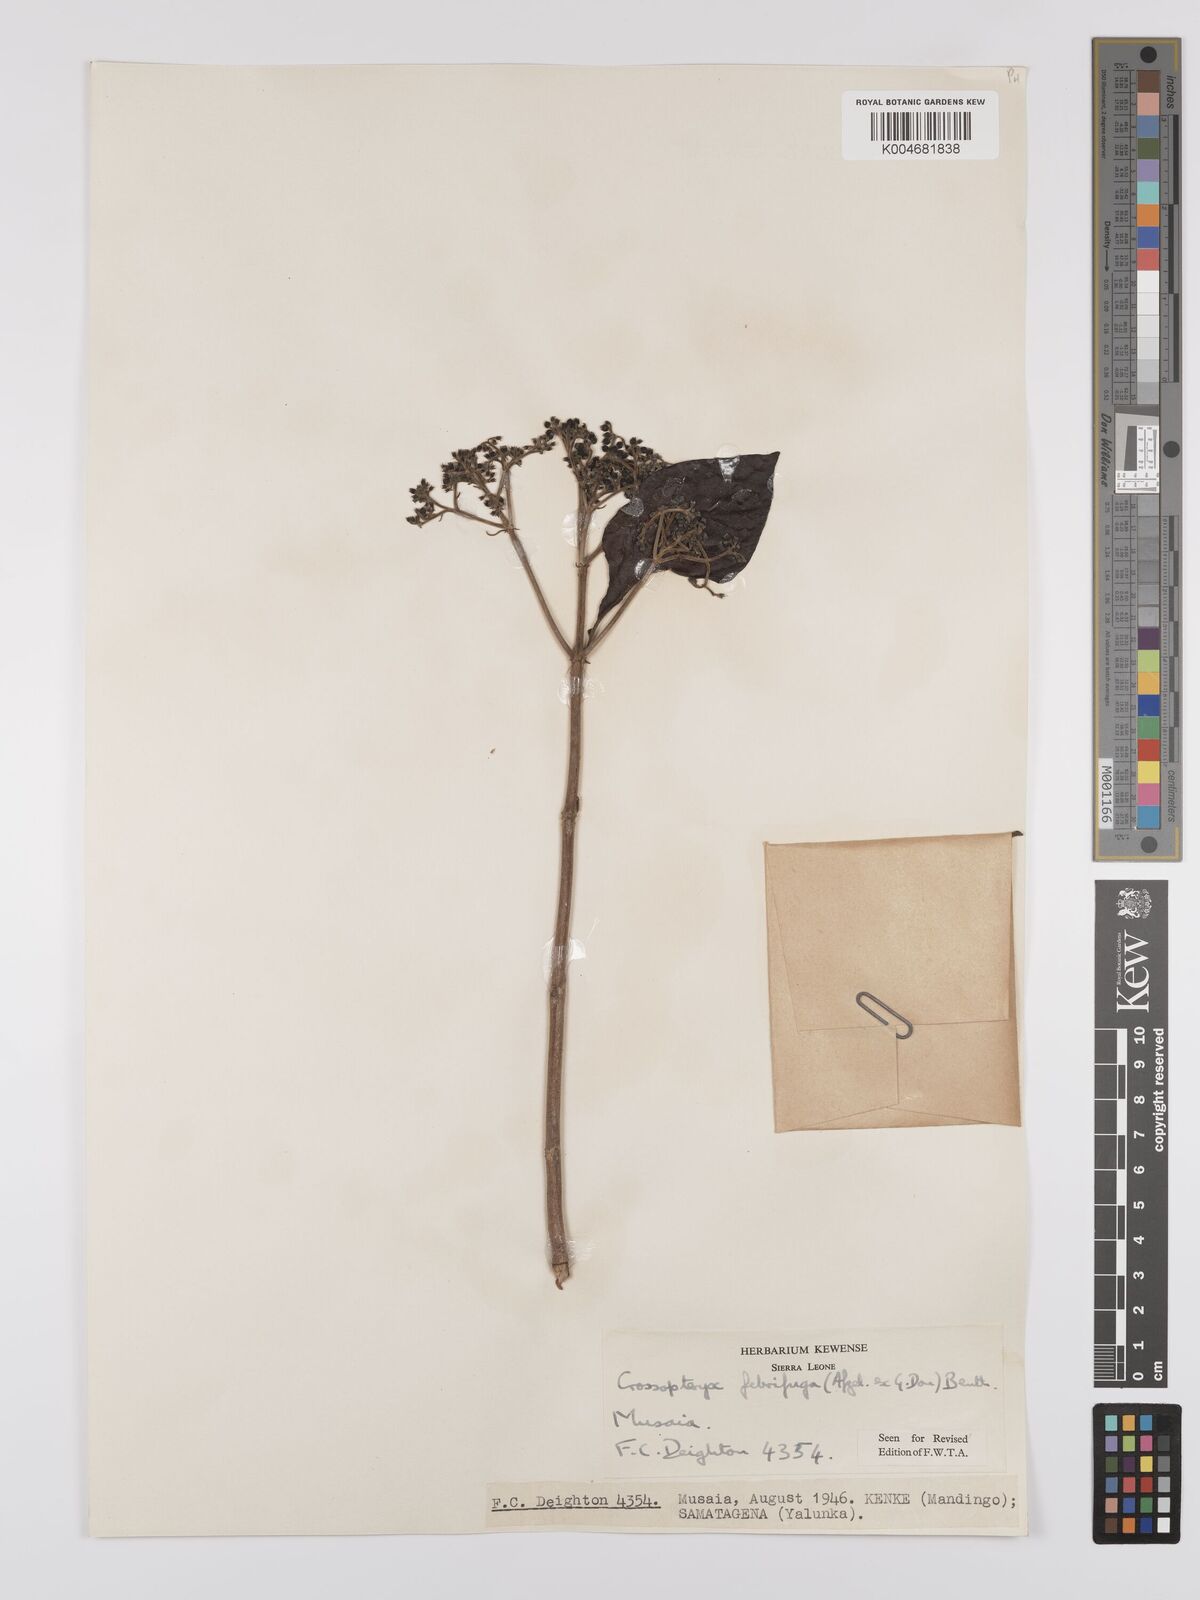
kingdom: Plantae
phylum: Tracheophyta
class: Magnoliopsida
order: Gentianales
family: Rubiaceae
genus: Crossopteryx
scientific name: Crossopteryx febrifuga
